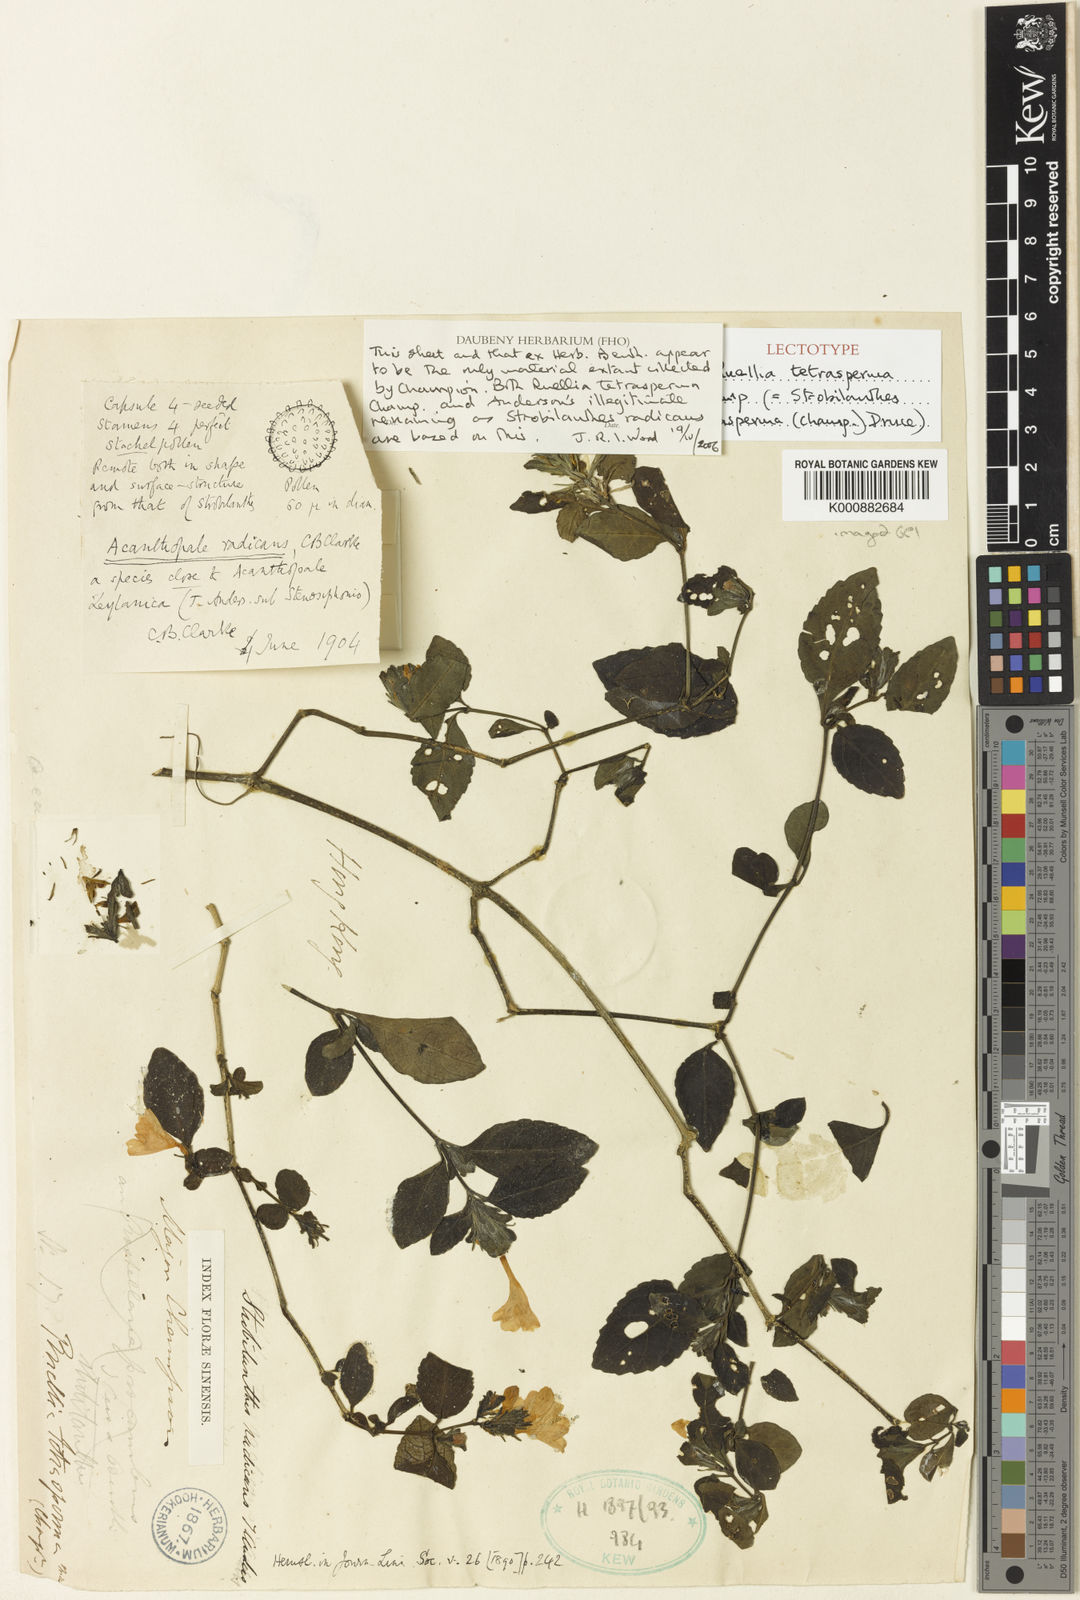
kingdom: Plantae
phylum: Tracheophyta
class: Magnoliopsida
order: Lamiales
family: Acanthaceae
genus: Strobilanthes
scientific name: Strobilanthes tetrasperma
